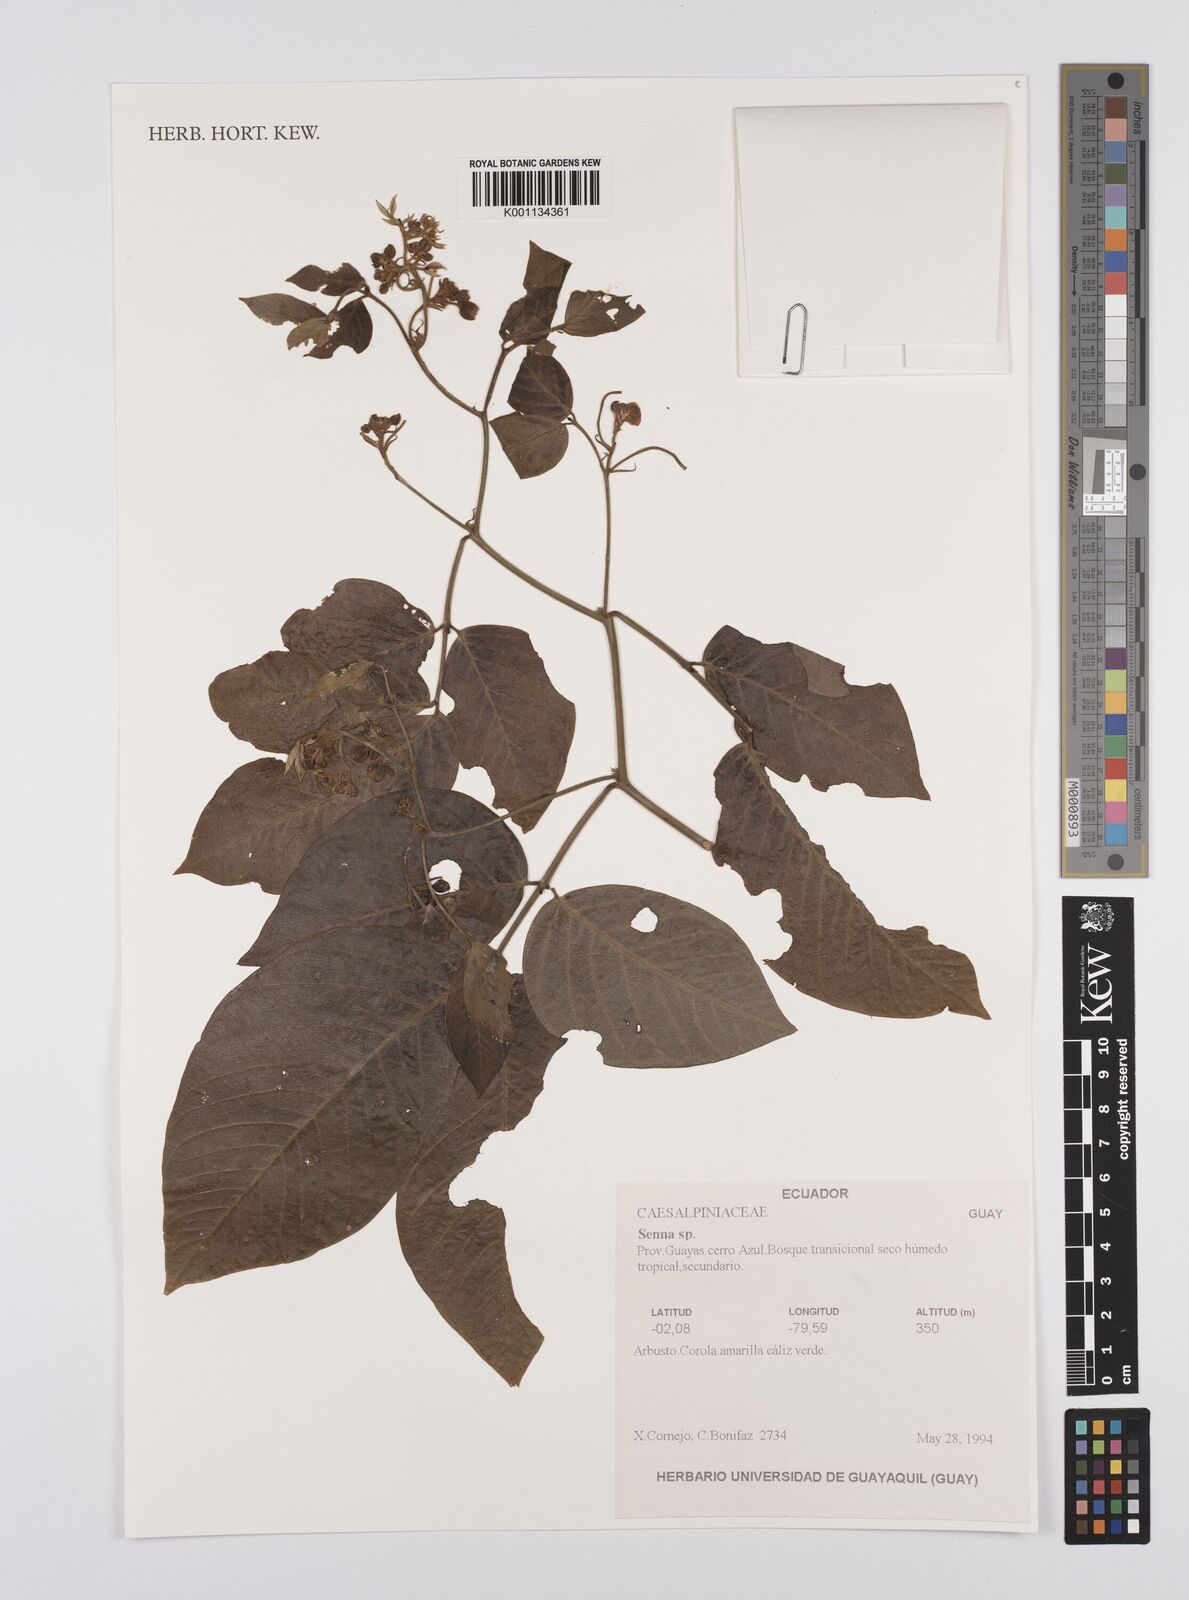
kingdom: Plantae
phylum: Tracheophyta
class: Magnoliopsida
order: Fabales
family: Fabaceae
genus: Senna
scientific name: Senna
